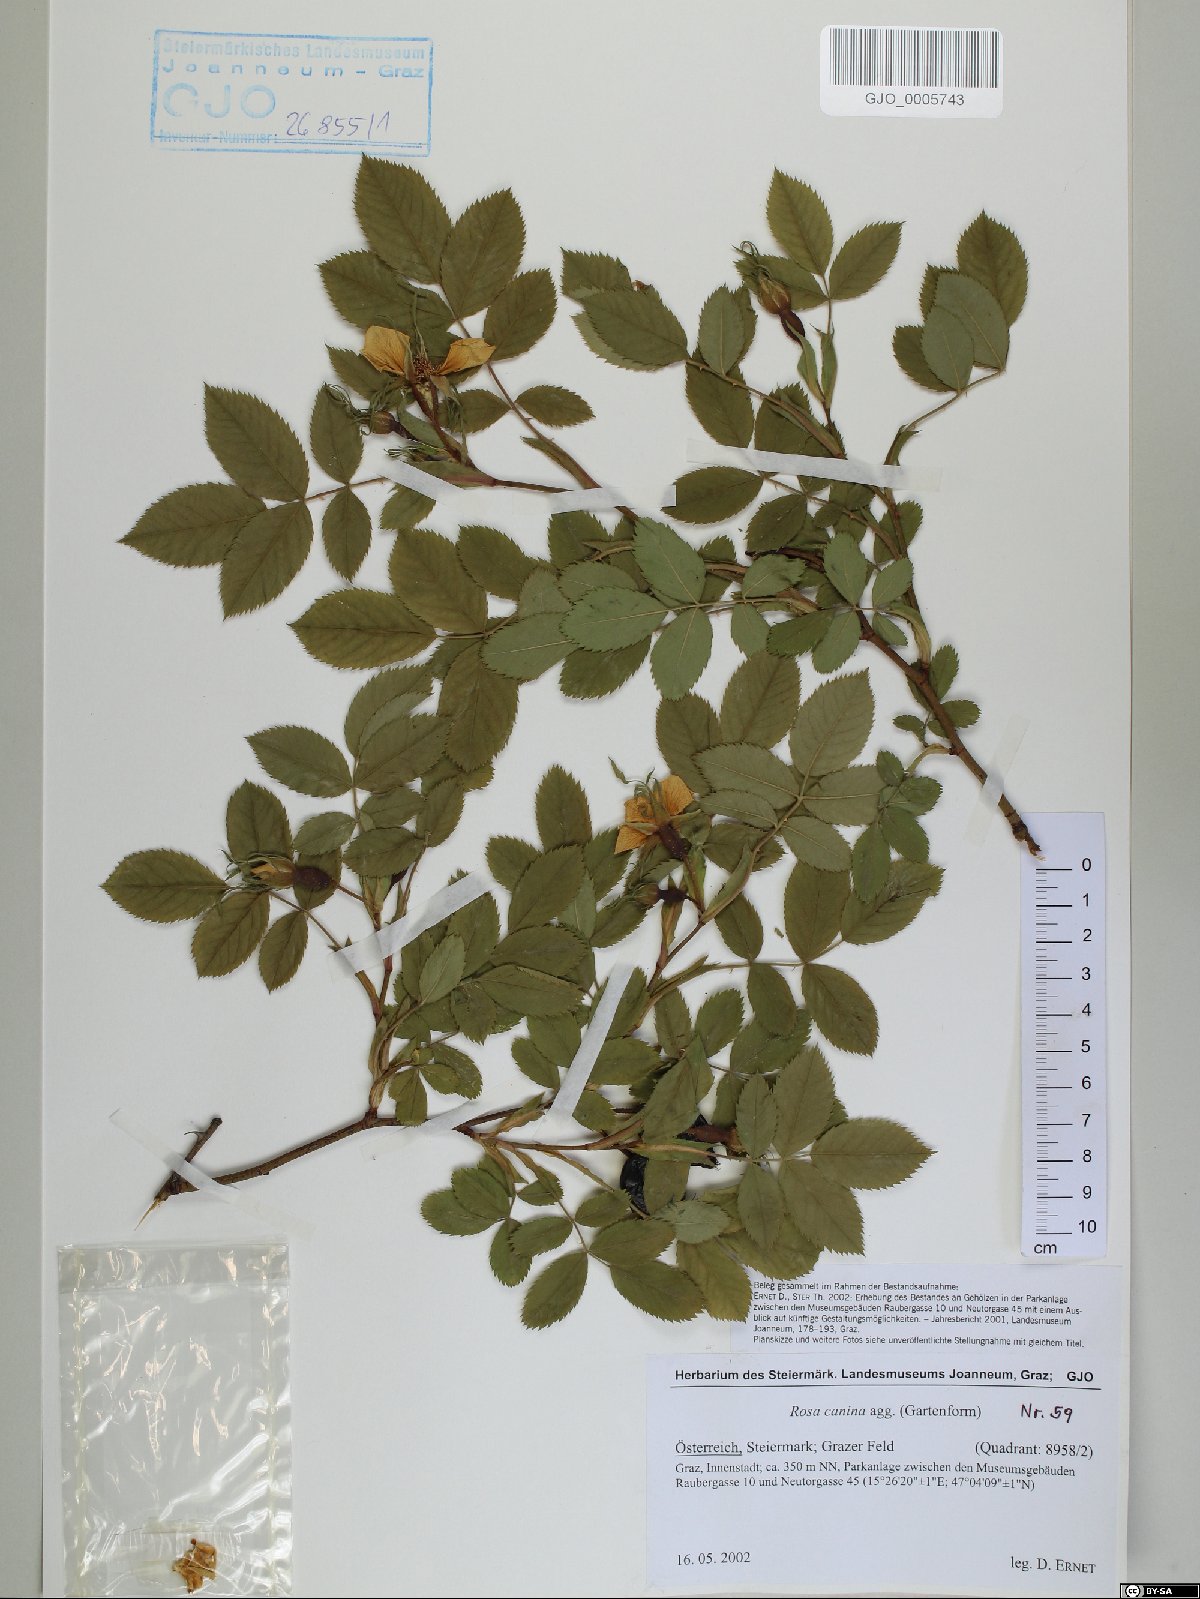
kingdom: Plantae
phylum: Tracheophyta
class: Magnoliopsida
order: Rosales
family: Rosaceae
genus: Rosa
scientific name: Rosa canina
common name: Dog rose
